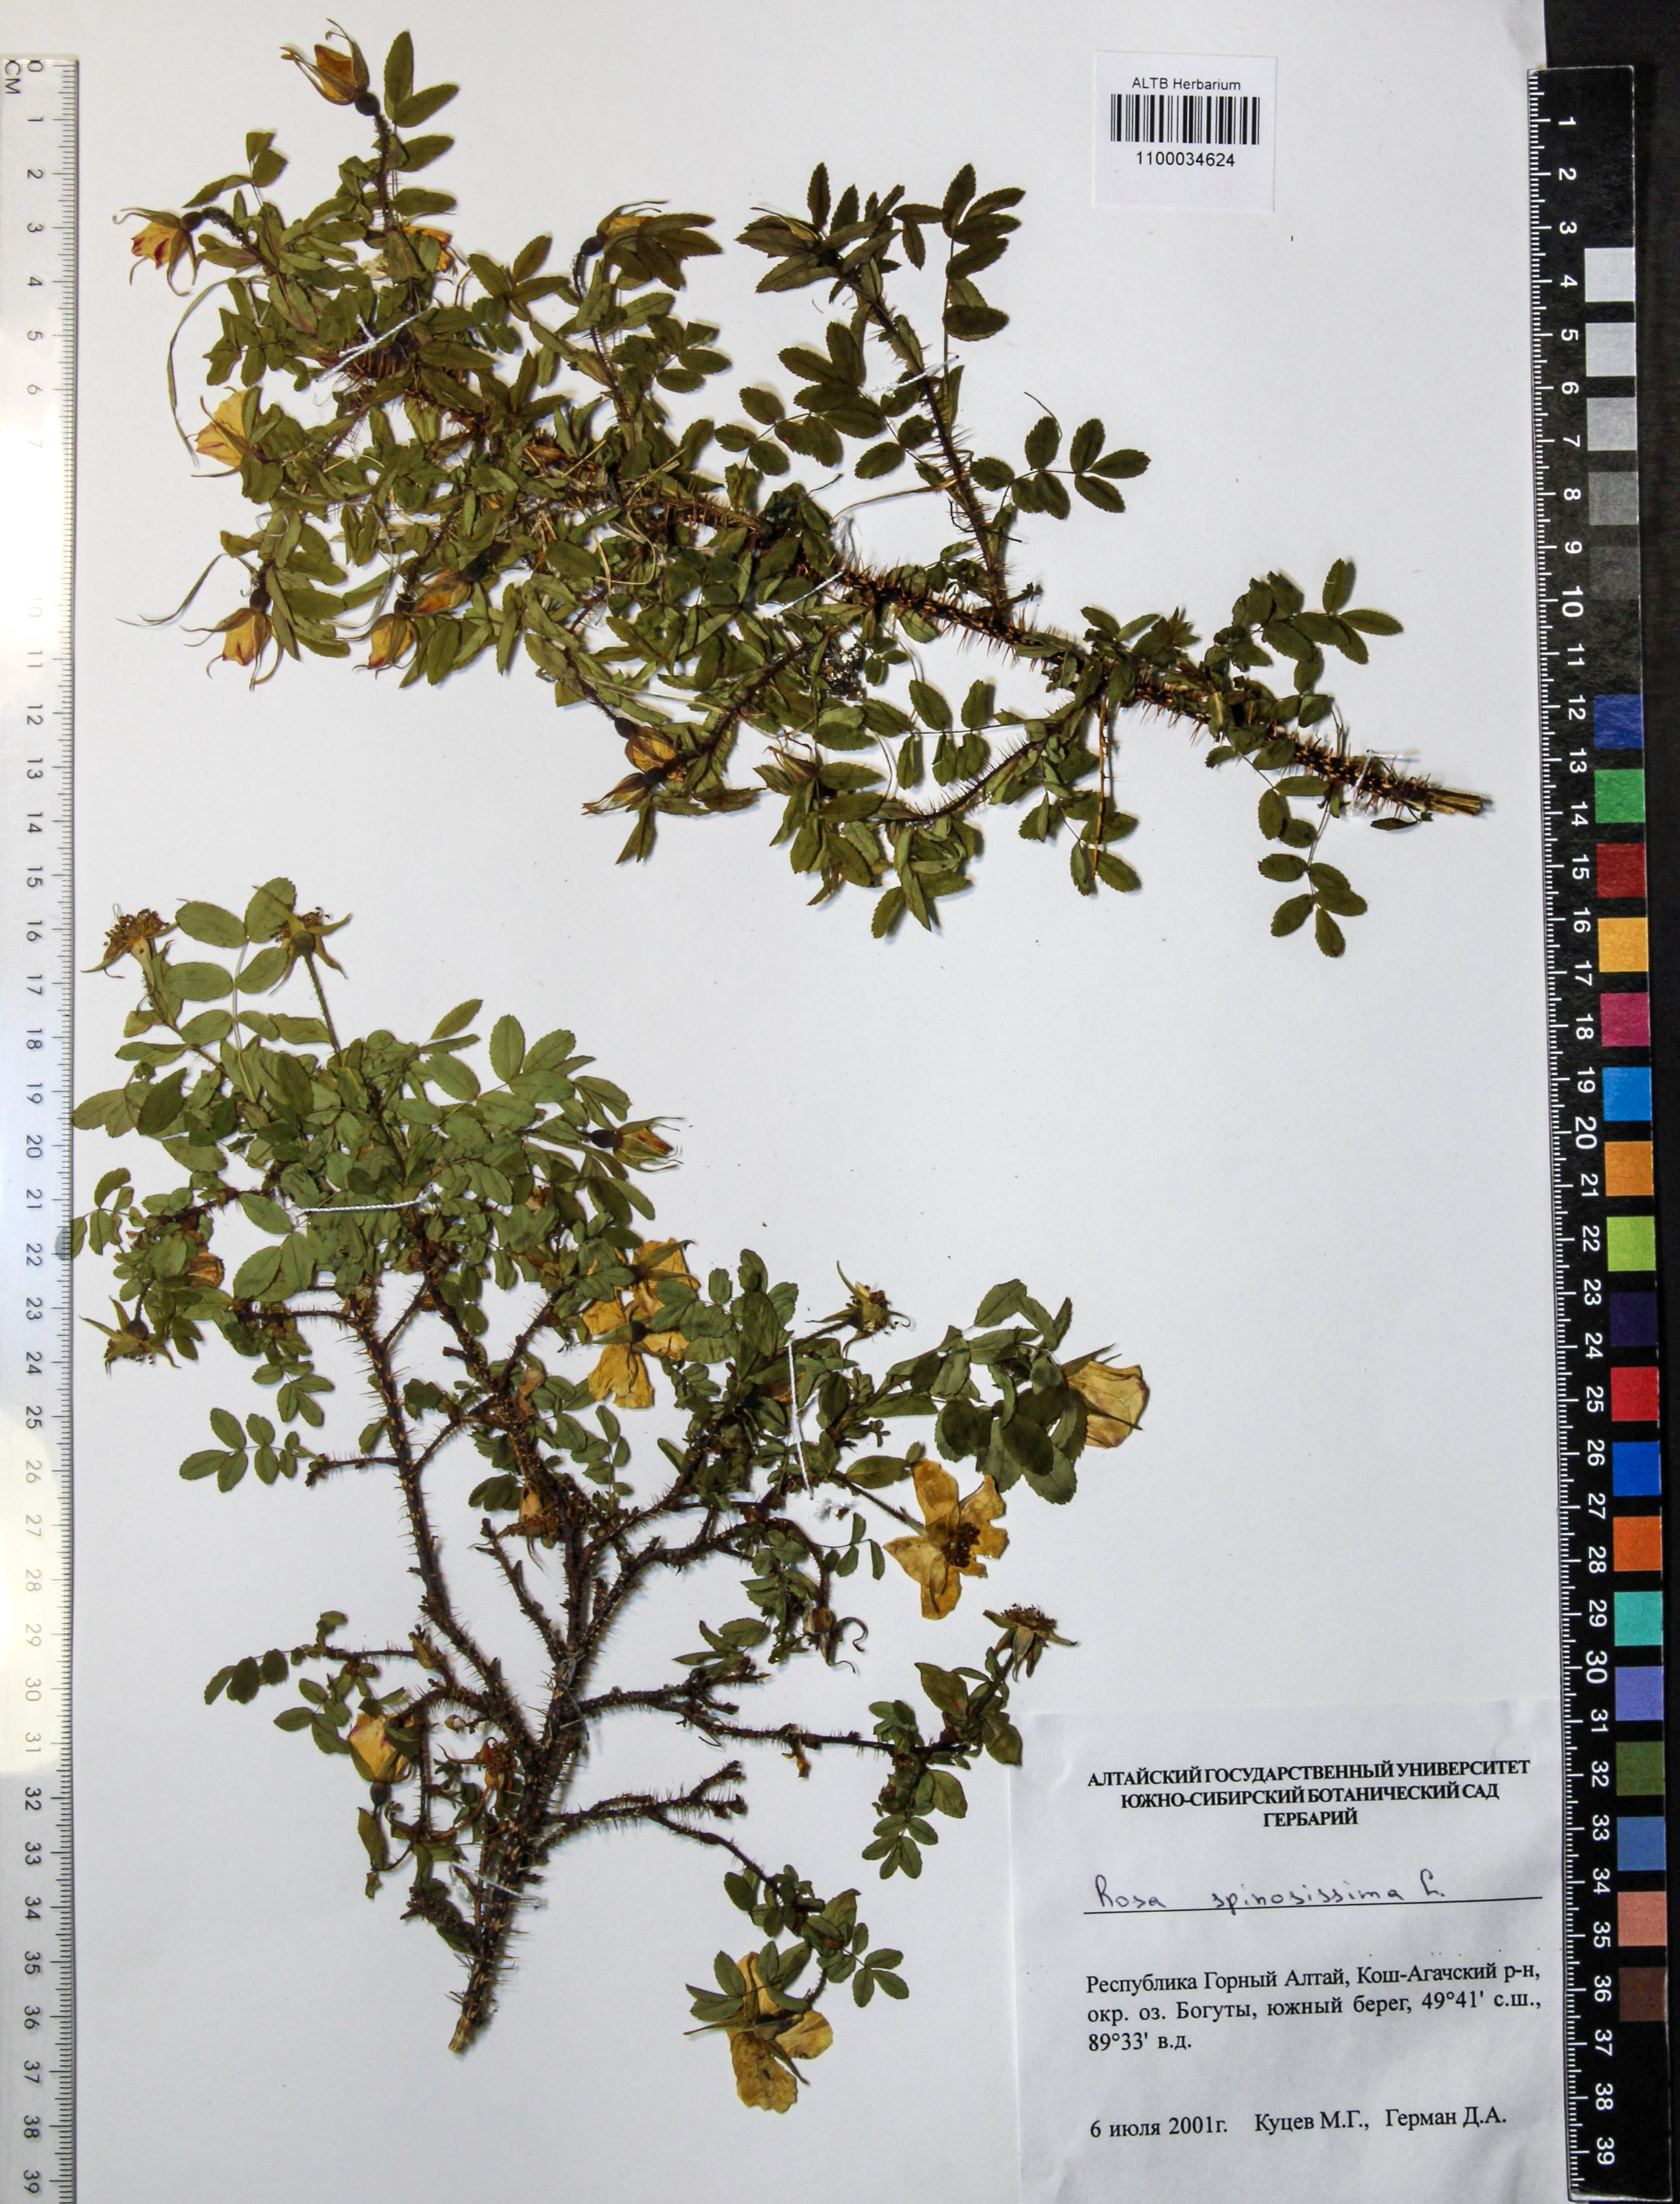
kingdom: Plantae
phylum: Tracheophyta
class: Magnoliopsida
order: Rosales
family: Rosaceae
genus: Rosa
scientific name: Rosa spinosissima
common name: Burnet rose
